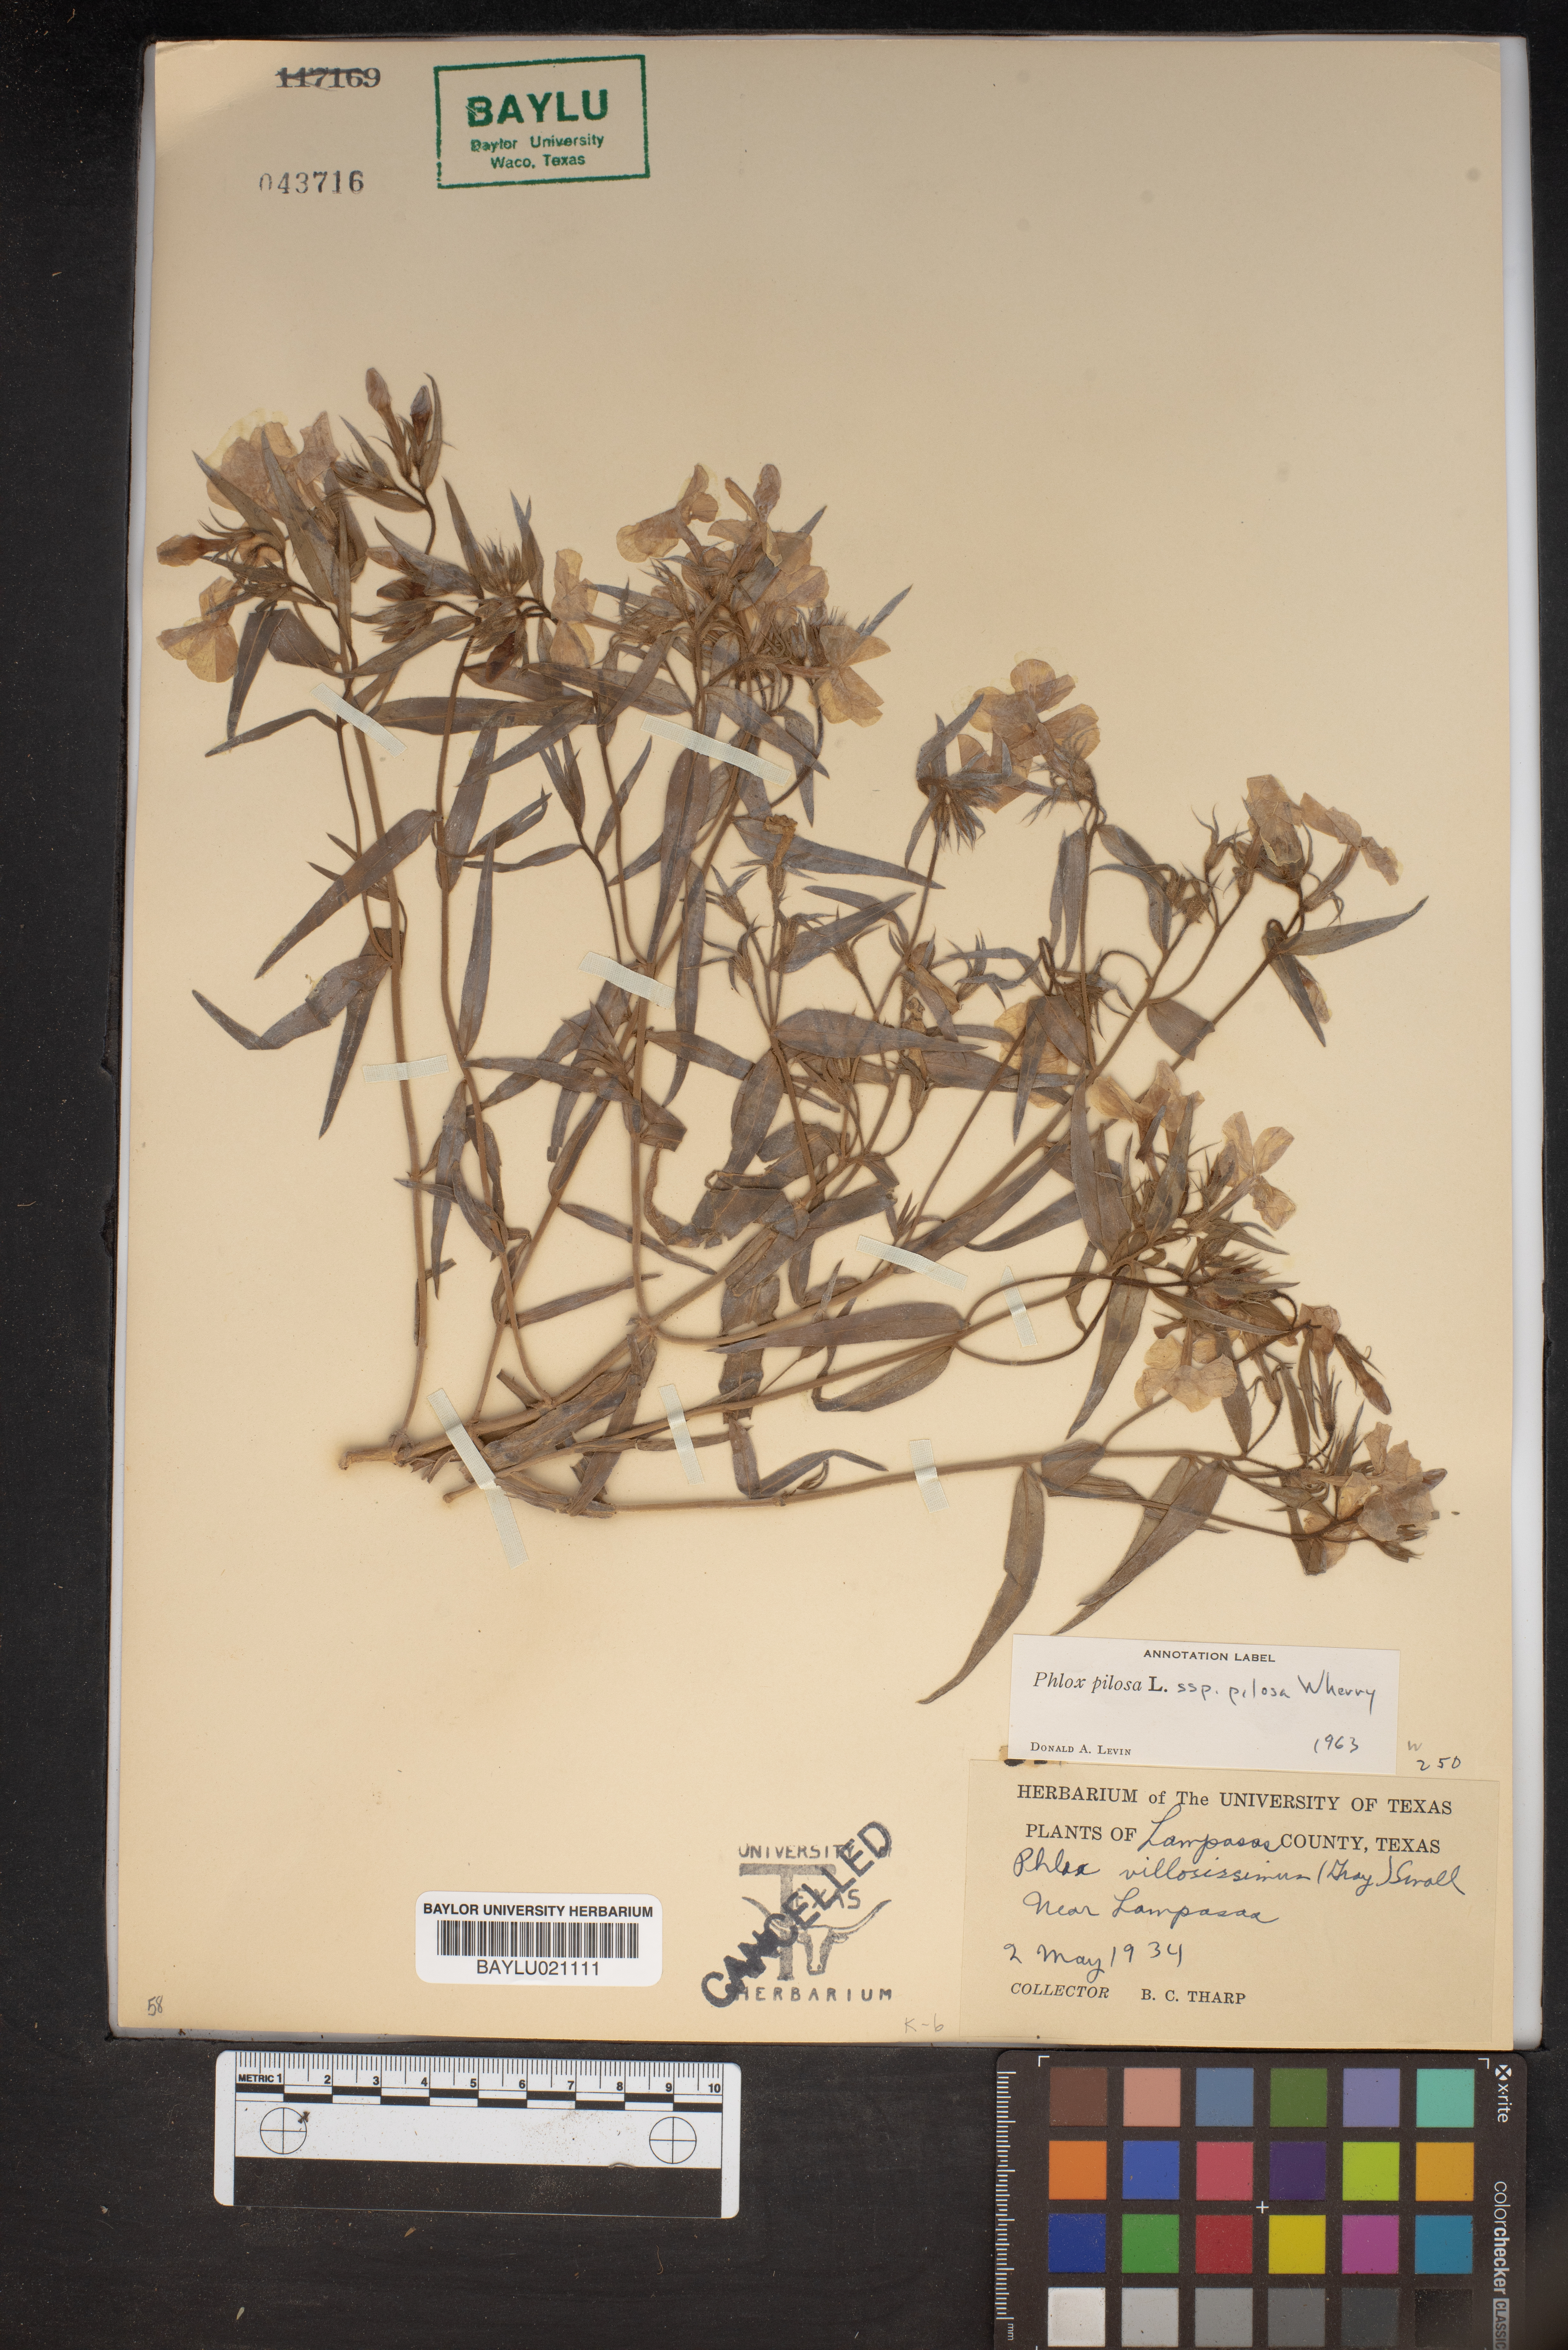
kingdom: Plantae
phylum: Tracheophyta
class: Magnoliopsida
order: Ericales
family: Polemoniaceae
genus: Phlox
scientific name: Phlox pilosa
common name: Prairie phlox
